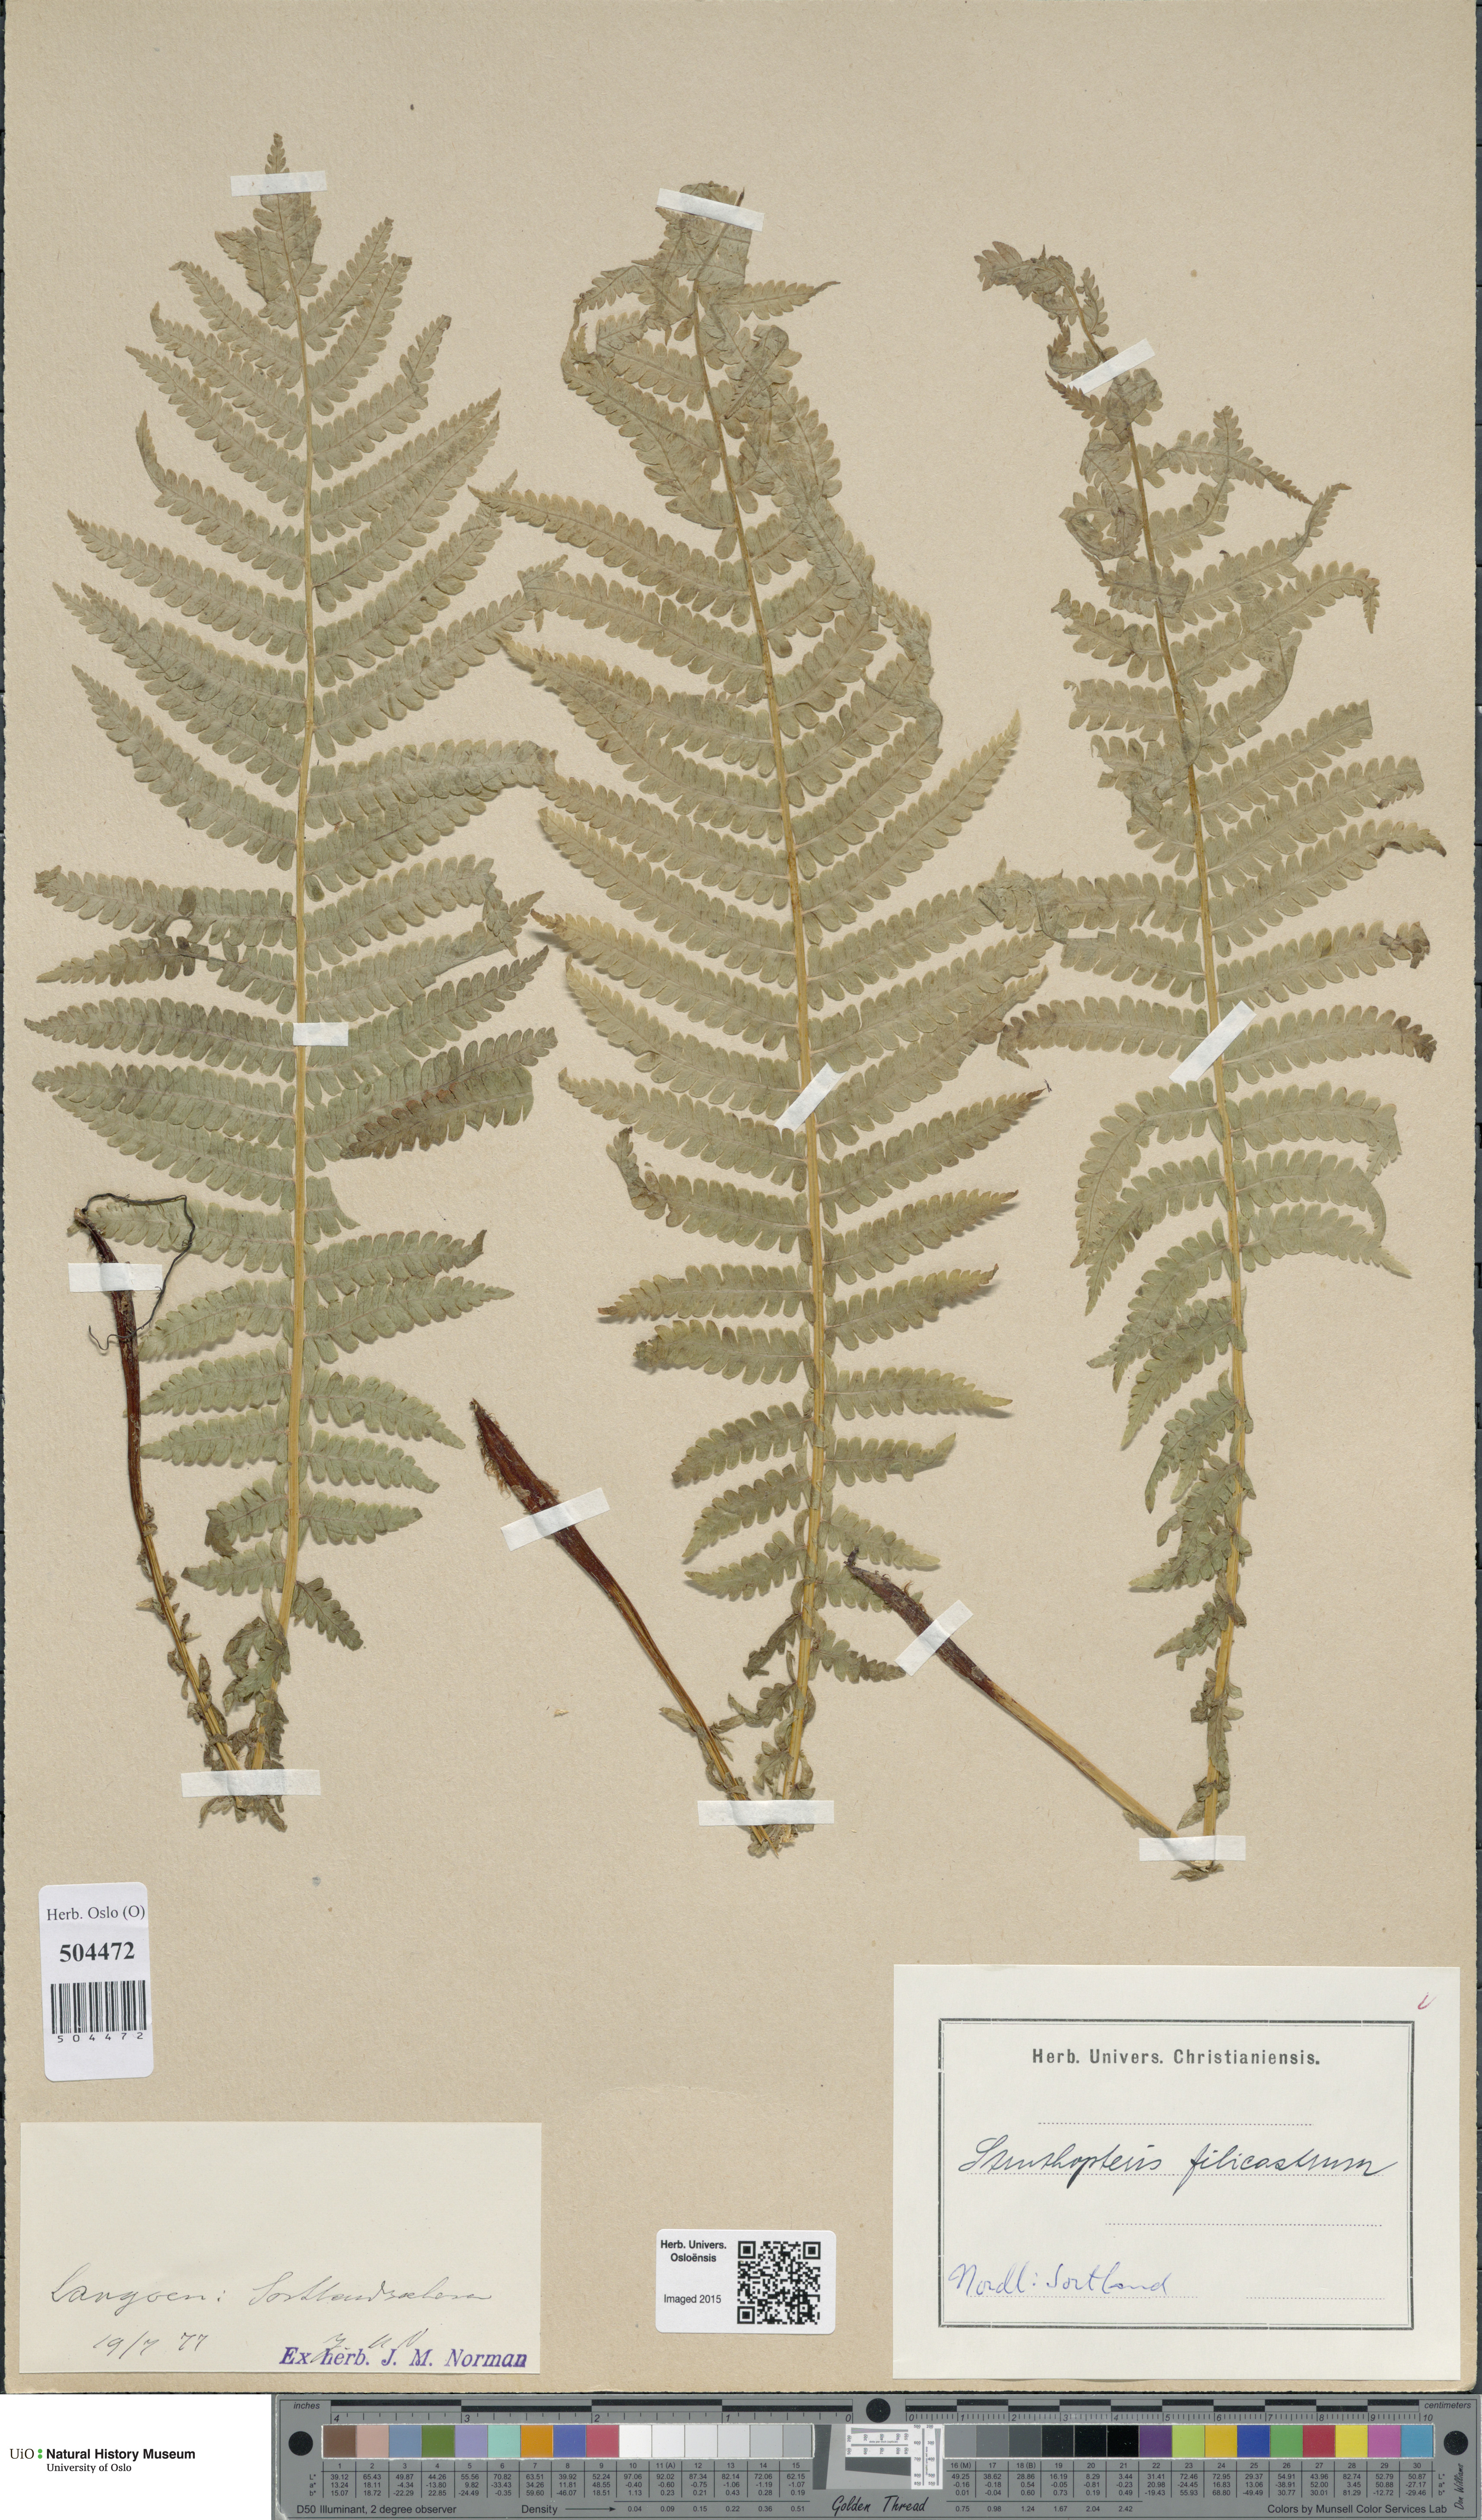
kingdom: Plantae
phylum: Tracheophyta
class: Polypodiopsida
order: Polypodiales
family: Onocleaceae
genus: Matteuccia
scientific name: Matteuccia struthiopteris
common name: Ostrich fern
